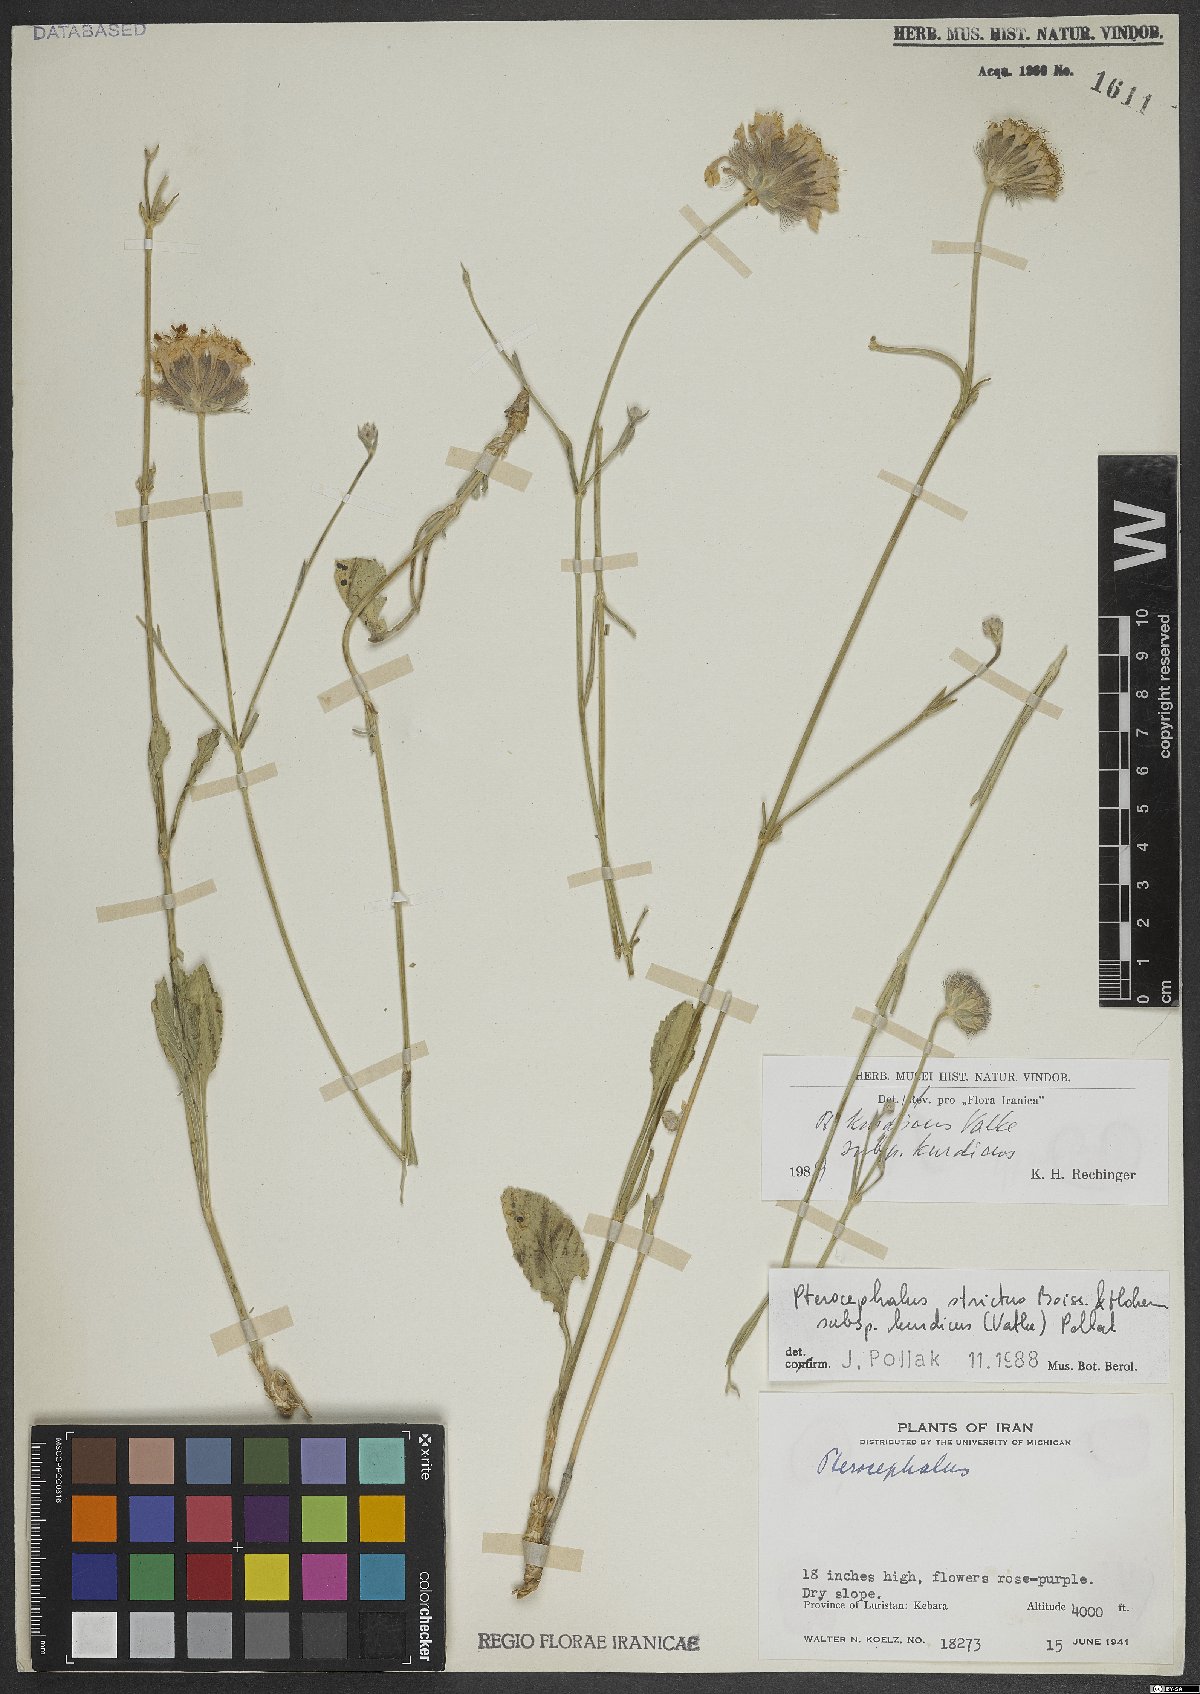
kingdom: Plantae
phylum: Tracheophyta
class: Magnoliopsida
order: Dipsacales
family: Caprifoliaceae
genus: Pterocephalus
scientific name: Pterocephalus kurdicus
